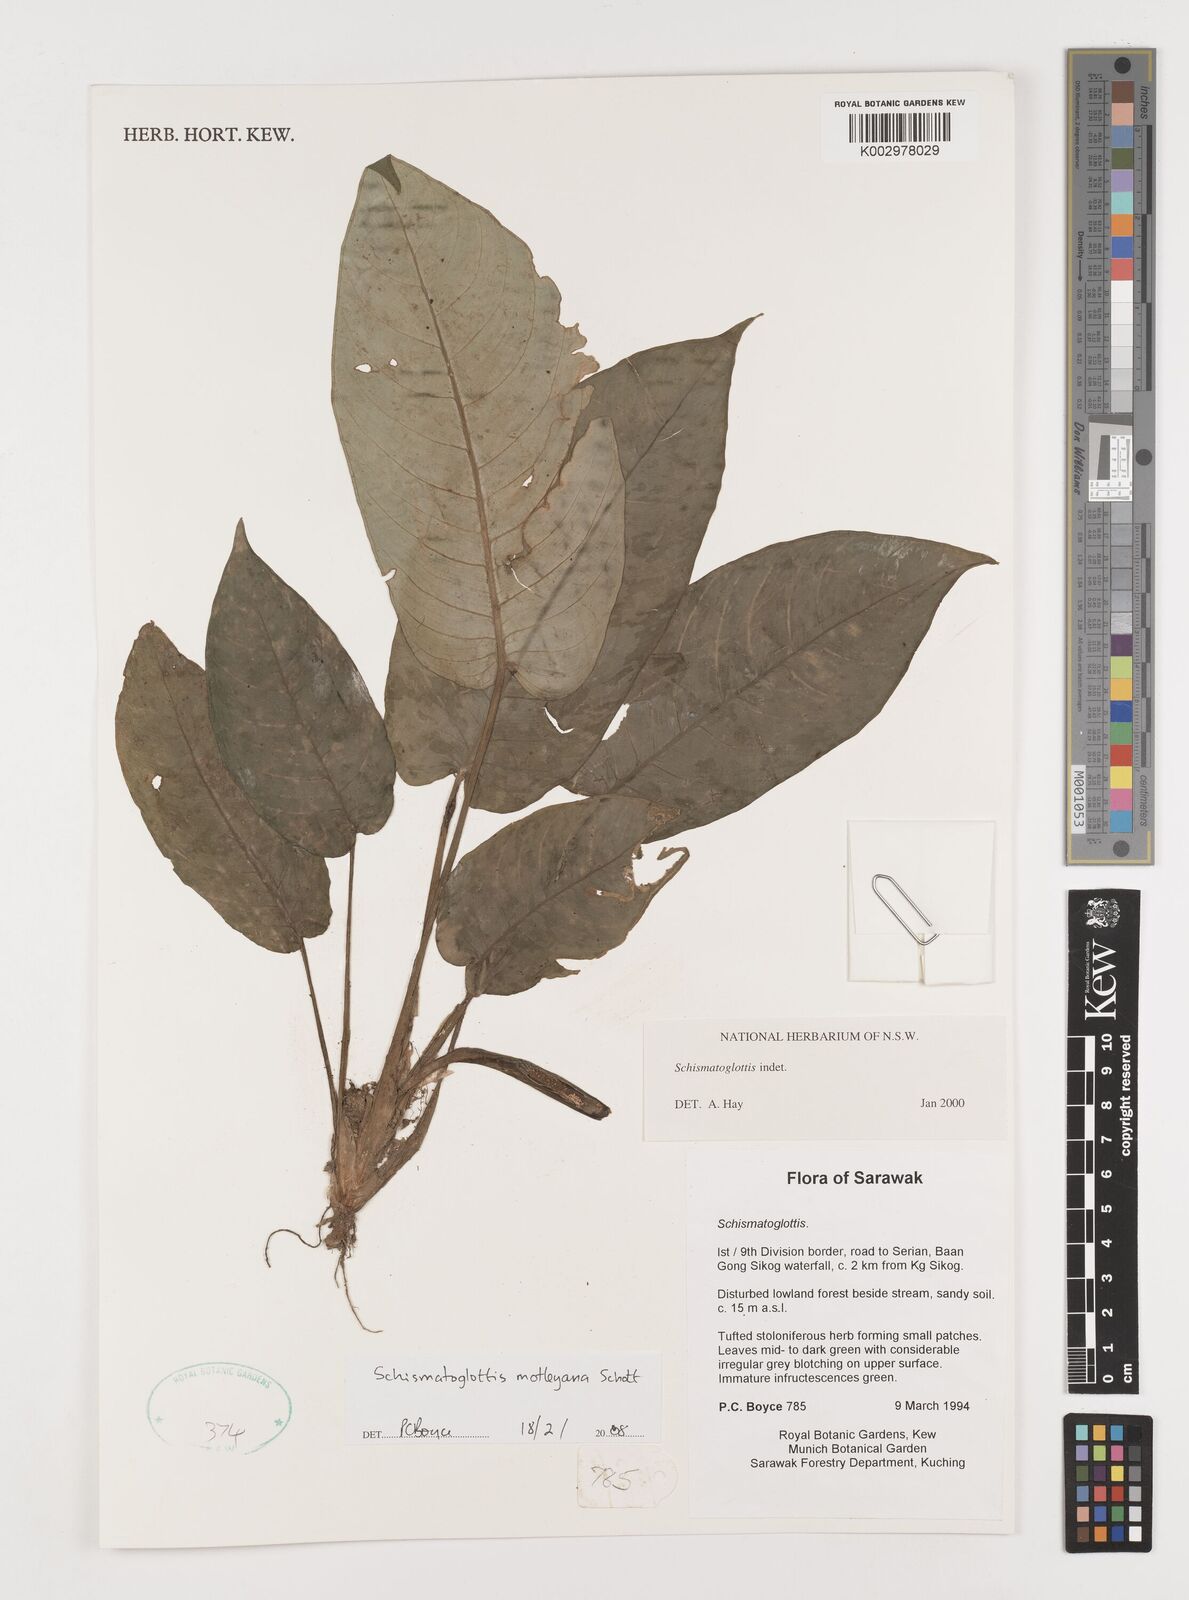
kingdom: Plantae
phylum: Tracheophyta
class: Liliopsida
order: Alismatales
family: Araceae
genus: Schismatoglottis
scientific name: Schismatoglottis motleyana
